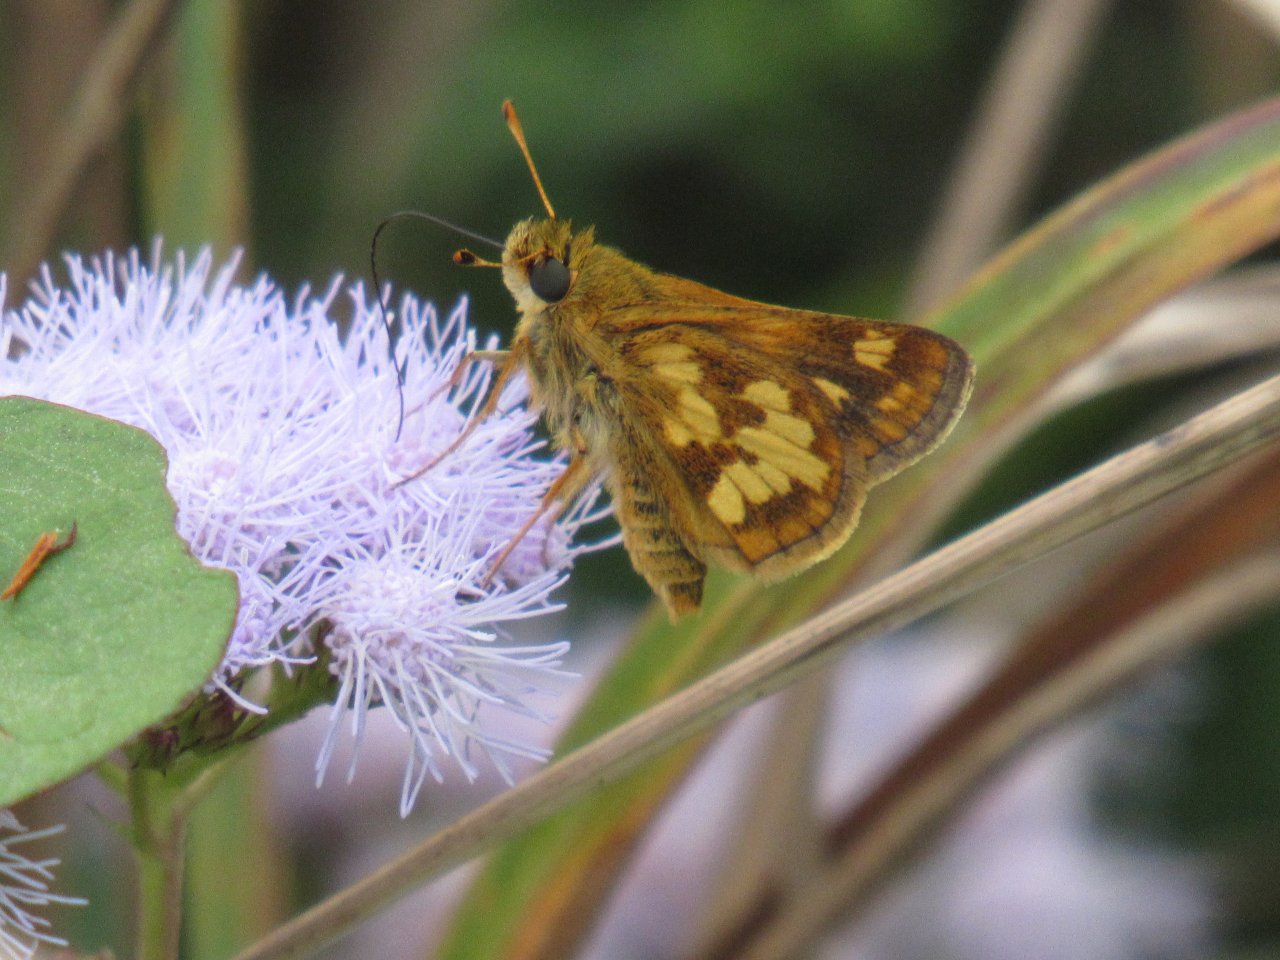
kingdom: Animalia
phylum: Arthropoda
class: Insecta
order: Lepidoptera
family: Hesperiidae
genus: Polites
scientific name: Polites coras
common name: Peck's Skipper
